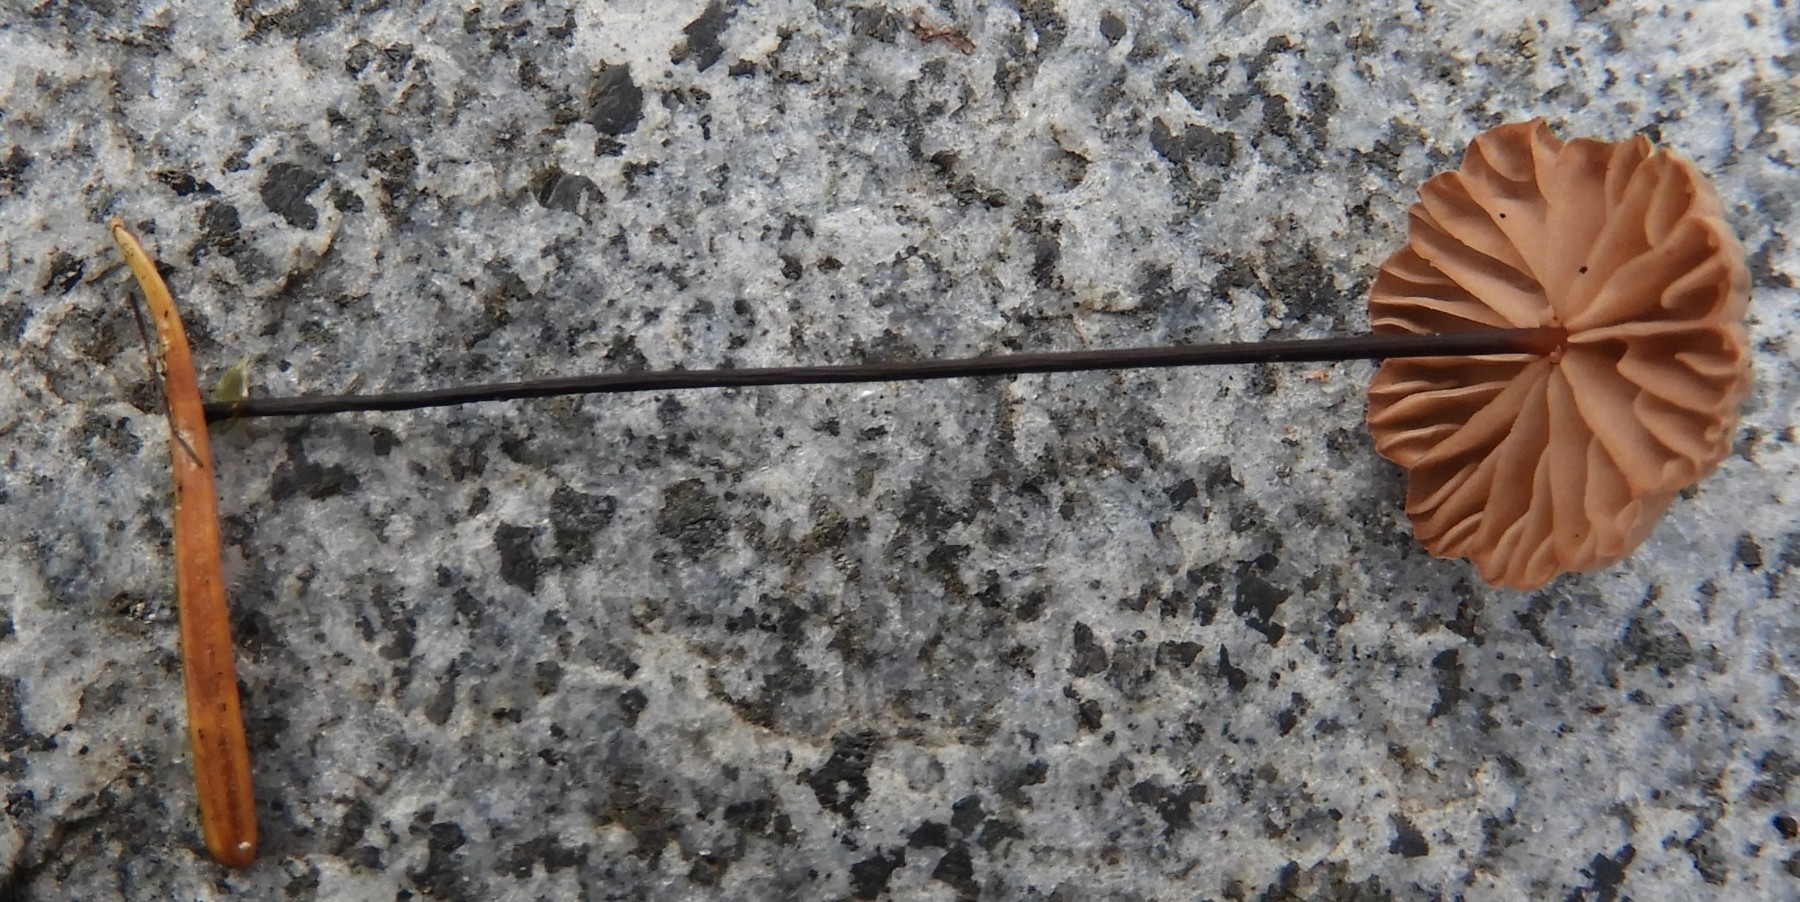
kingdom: Fungi
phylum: Basidiomycota
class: Agaricomycetes
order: Agaricales
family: Omphalotaceae
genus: Paragymnopus
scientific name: Paragymnopus perforans
